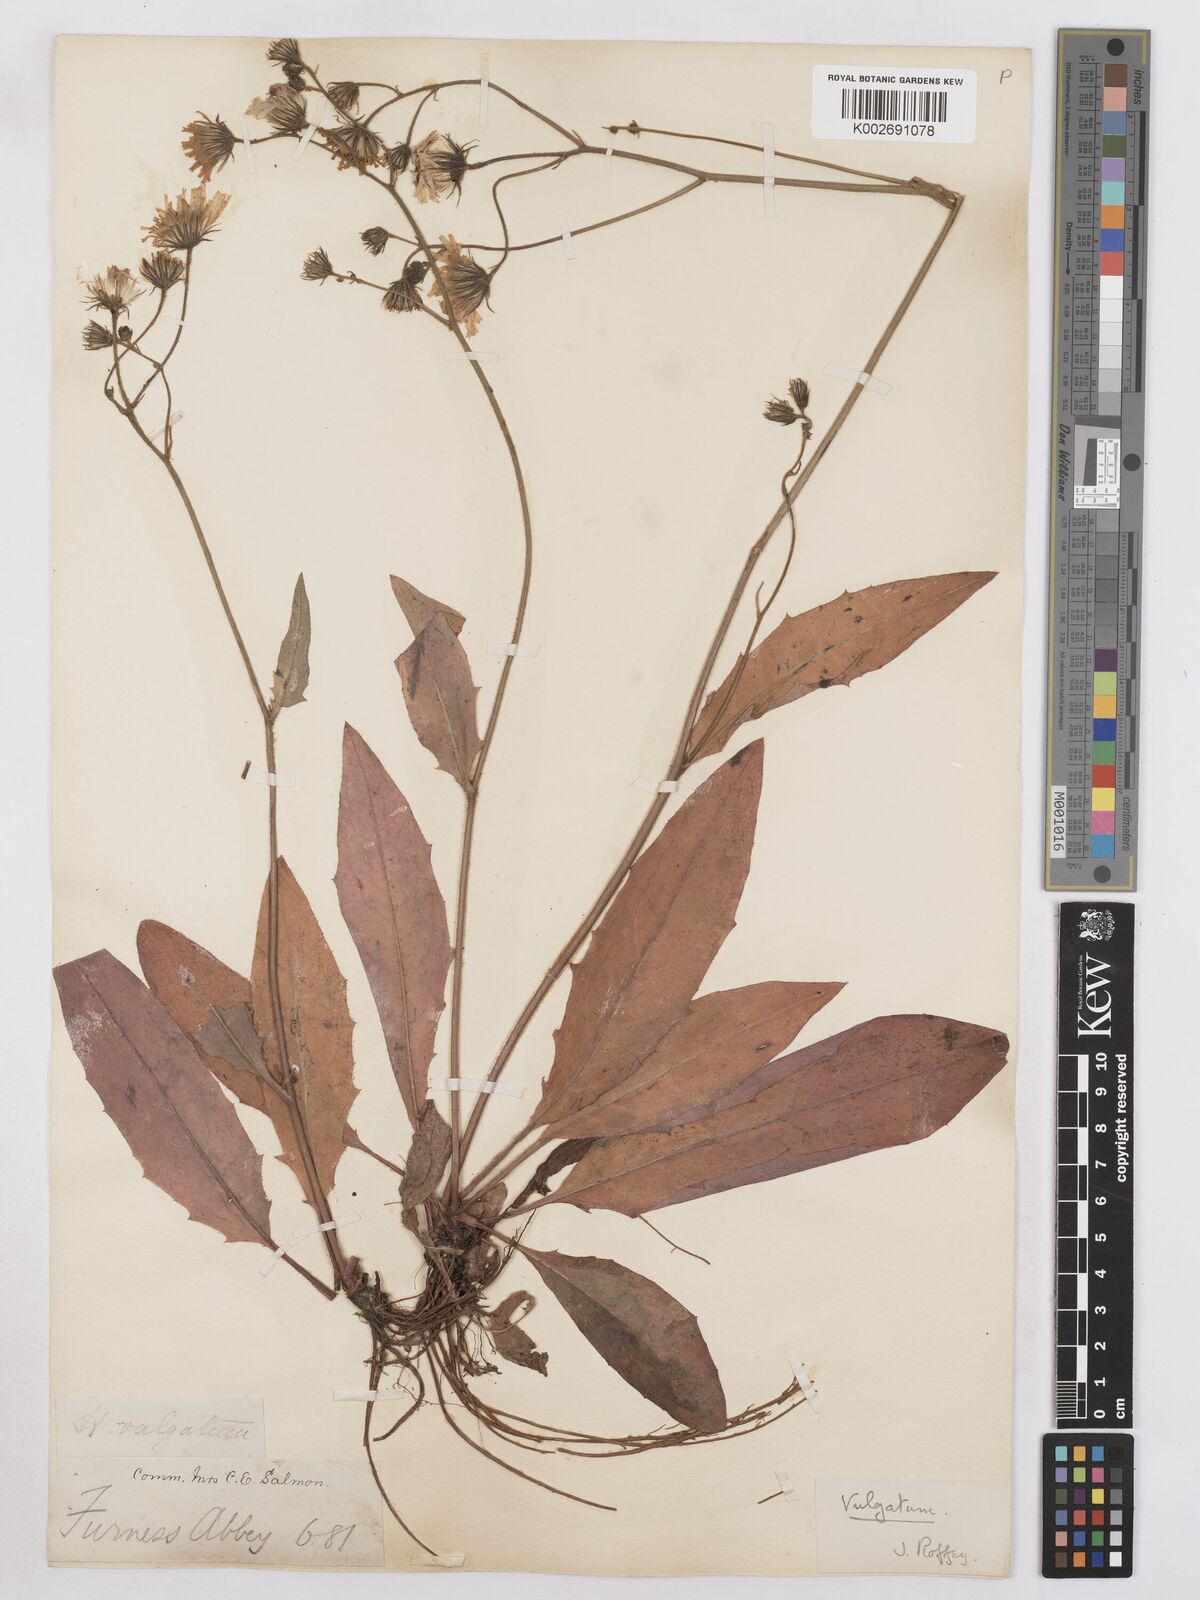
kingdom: Plantae
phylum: Tracheophyta
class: Magnoliopsida
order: Asterales
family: Asteraceae
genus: Hieracium
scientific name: Hieracium lachenalii
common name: Common hawkweed
